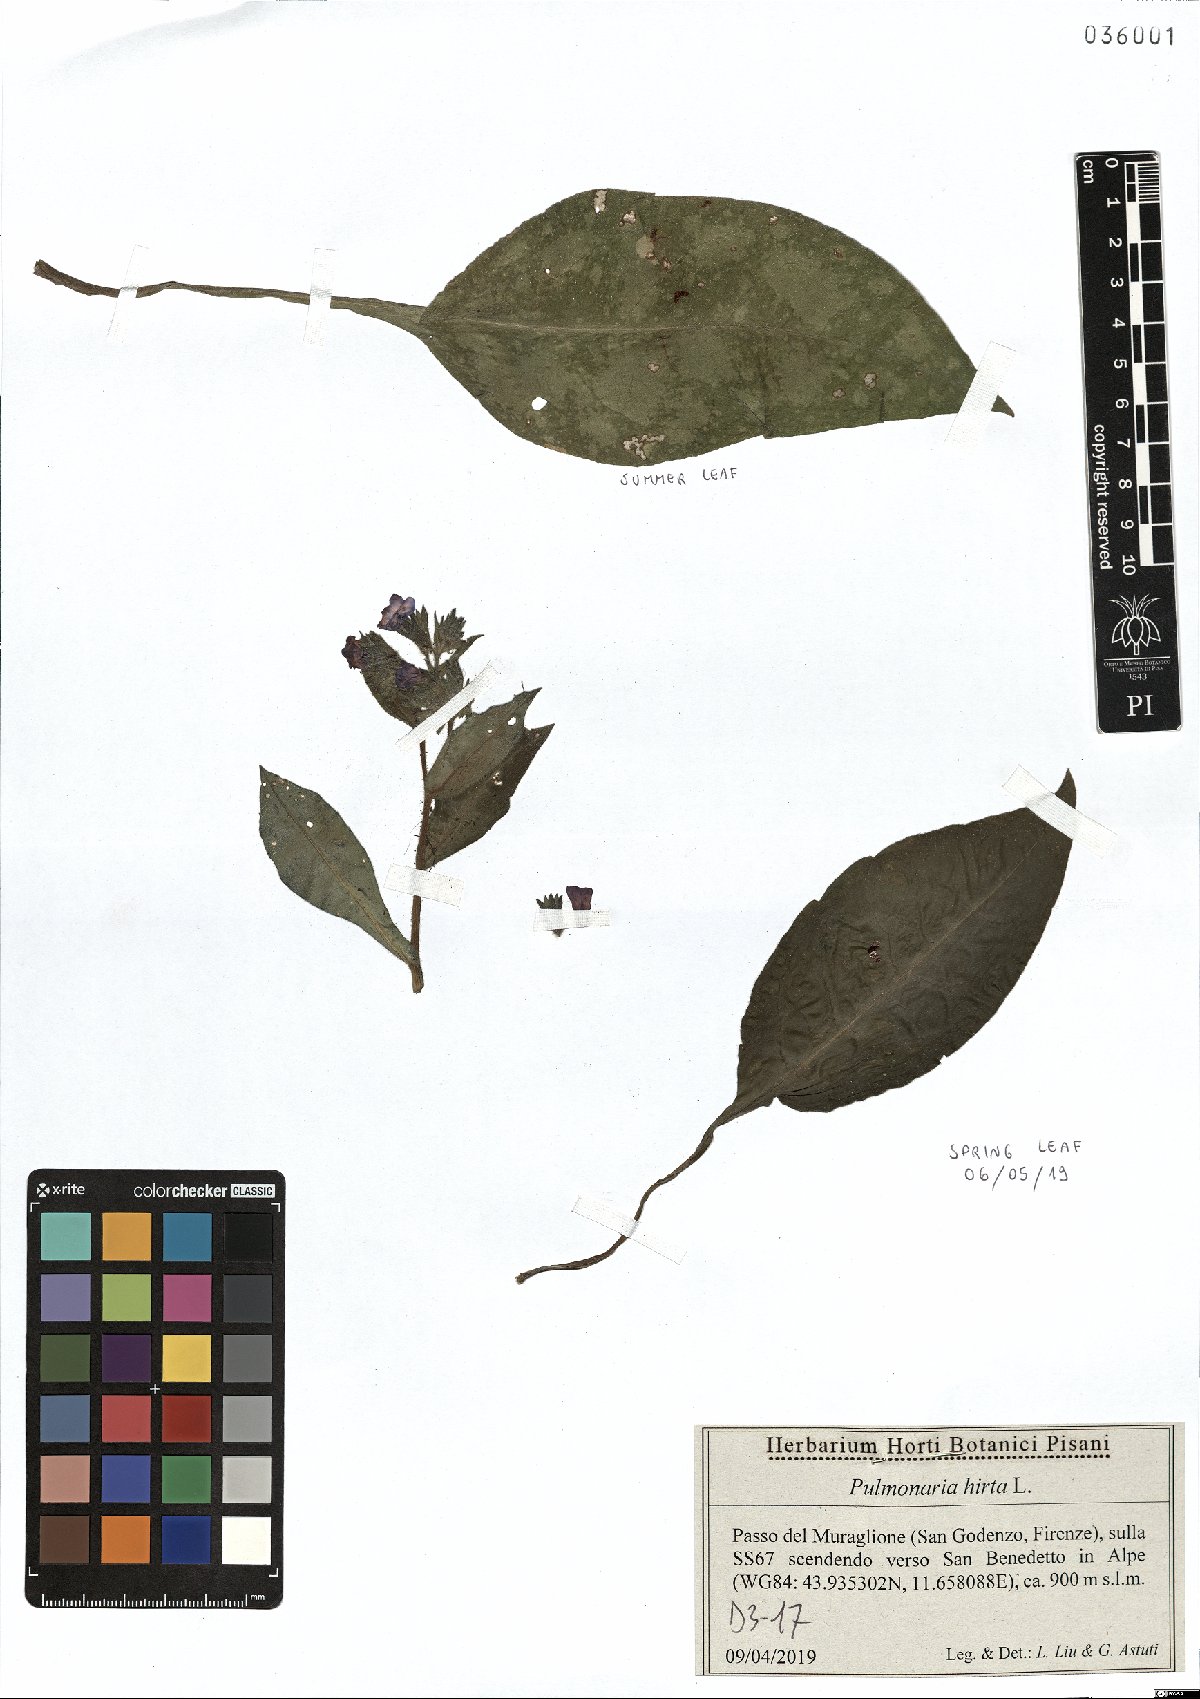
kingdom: Plantae
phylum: Tracheophyta
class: Magnoliopsida
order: Boraginales
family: Boraginaceae
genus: Pulmonaria
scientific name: Pulmonaria hirta
